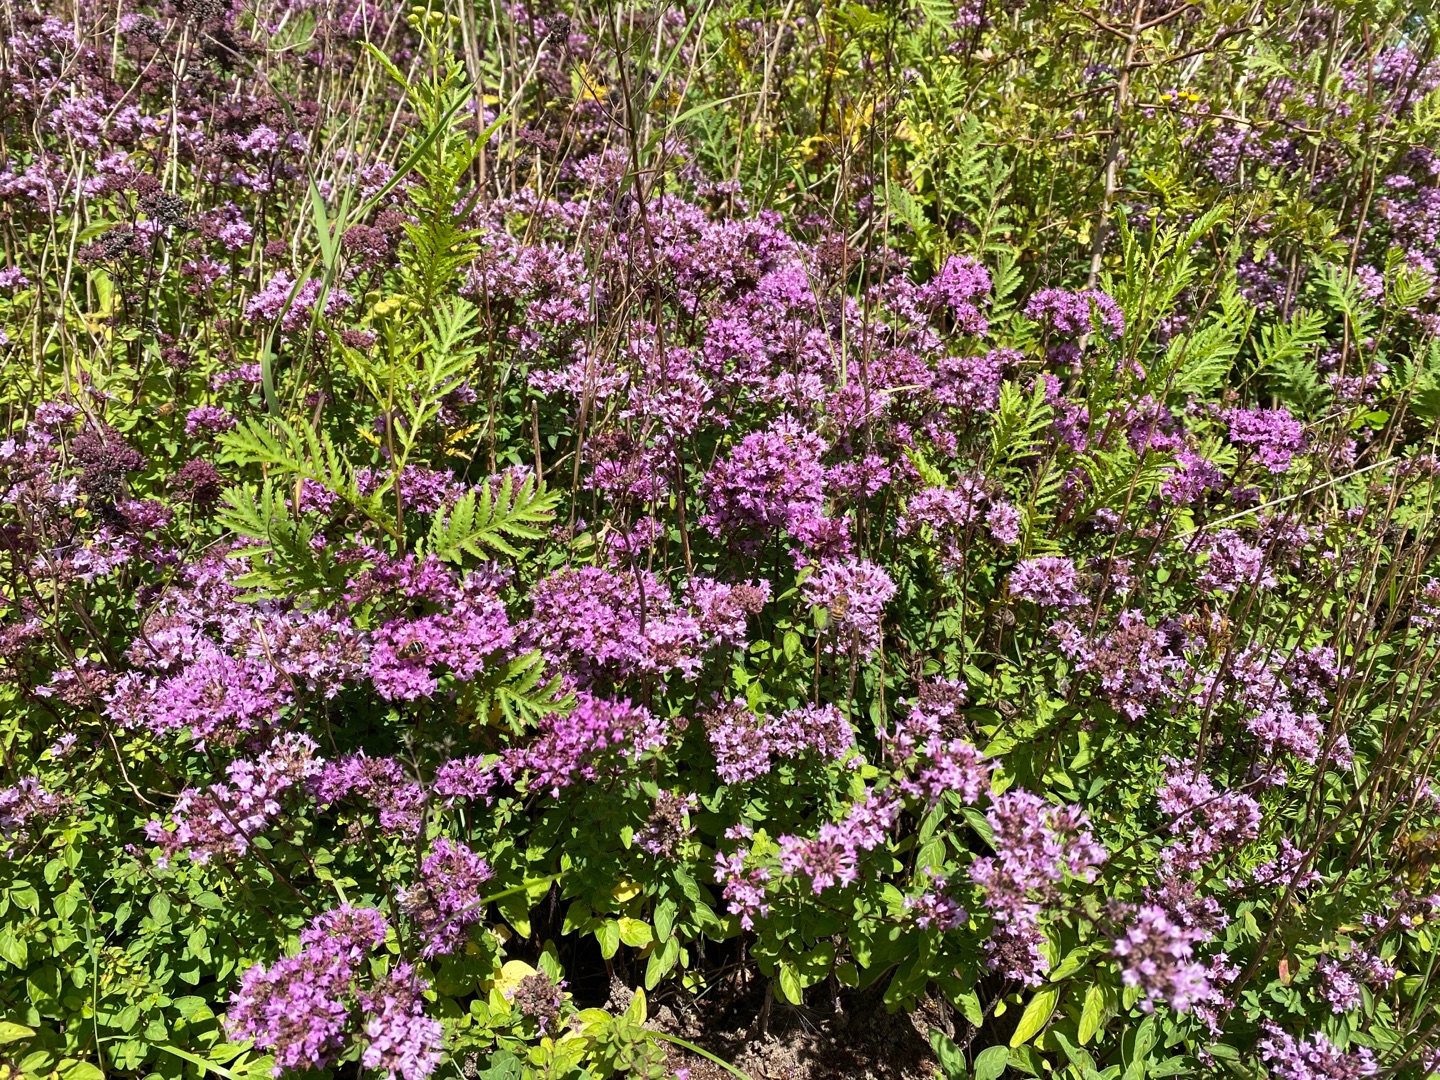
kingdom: Plantae
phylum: Tracheophyta
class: Magnoliopsida
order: Lamiales
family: Lamiaceae
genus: Origanum
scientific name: Origanum vulgare
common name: Merian
